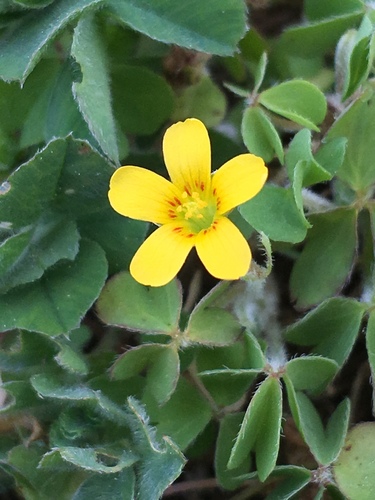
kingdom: Plantae
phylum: Tracheophyta
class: Magnoliopsida
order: Oxalidales
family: Oxalidaceae
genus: Oxalis
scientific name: Oxalis corniculata
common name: Procumbent yellow-sorrel
